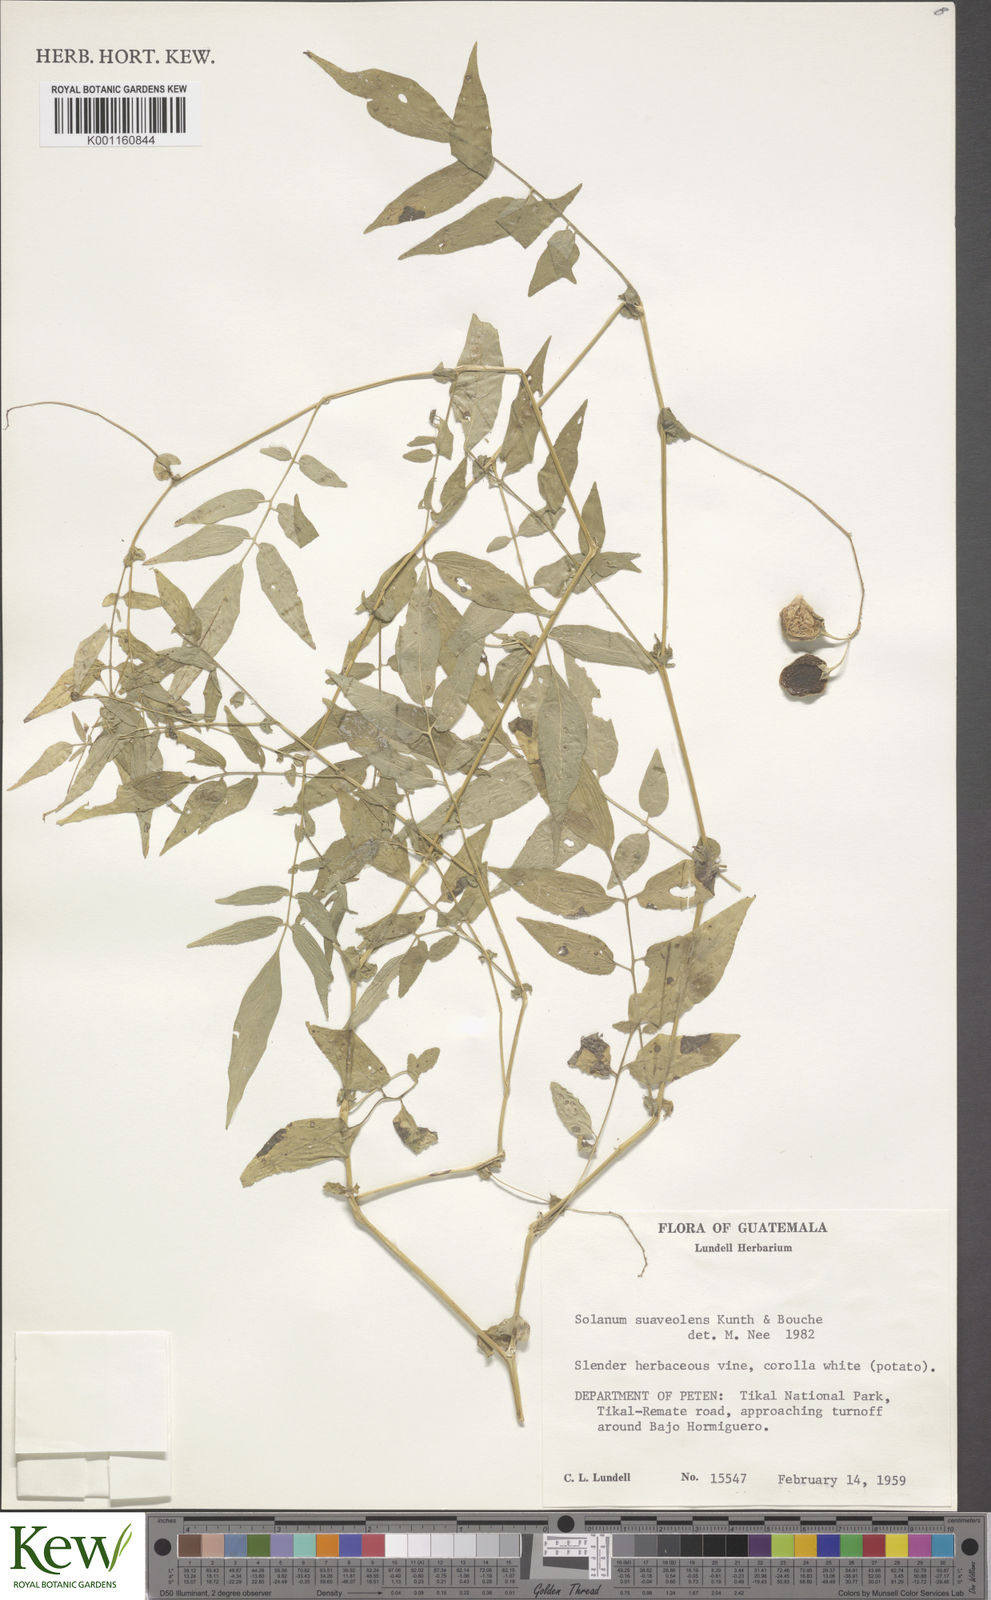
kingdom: Plantae
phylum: Tracheophyta
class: Magnoliopsida
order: Solanales
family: Solanaceae
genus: Solanum
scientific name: Solanum
